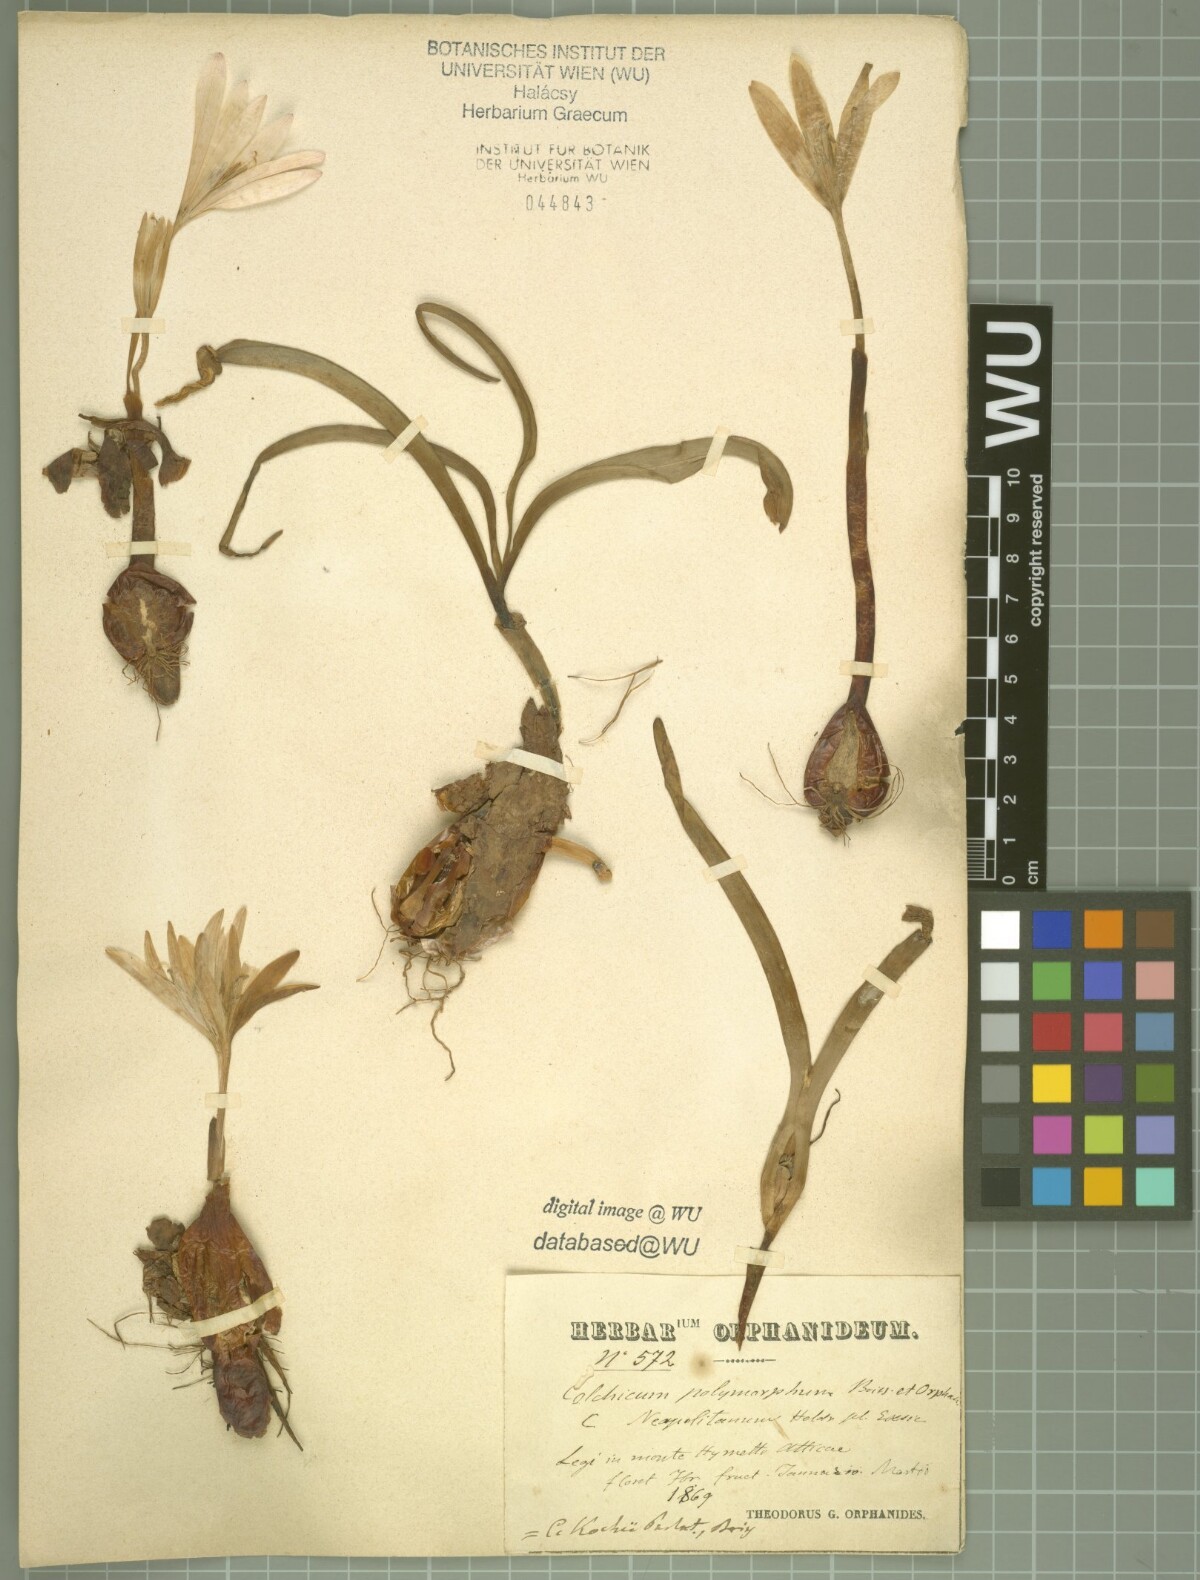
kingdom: Plantae
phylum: Tracheophyta
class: Liliopsida
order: Liliales
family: Colchicaceae
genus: Colchicum
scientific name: Colchicum sfikasianum
